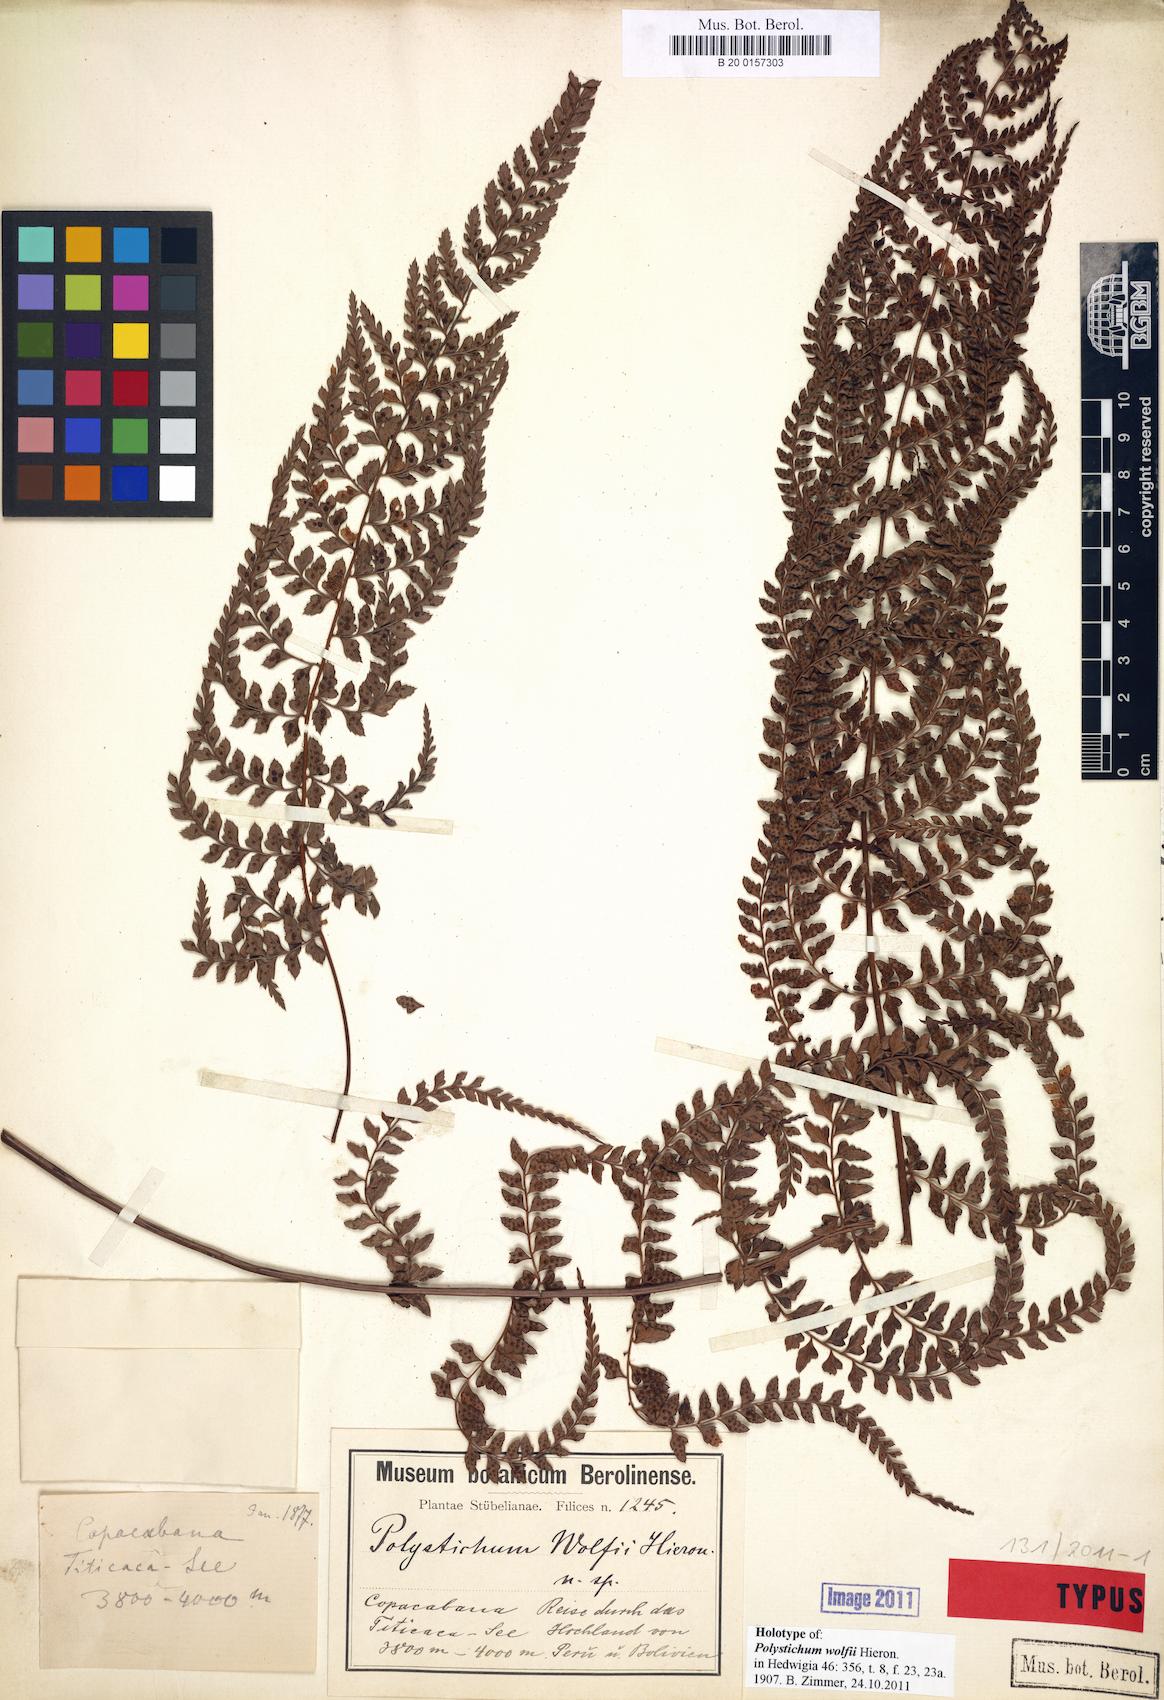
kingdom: Plantae
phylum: Tracheophyta
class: Polypodiopsida
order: Polypodiales
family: Dryopteridaceae
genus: Polystichum
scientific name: Polystichum nudicaule
